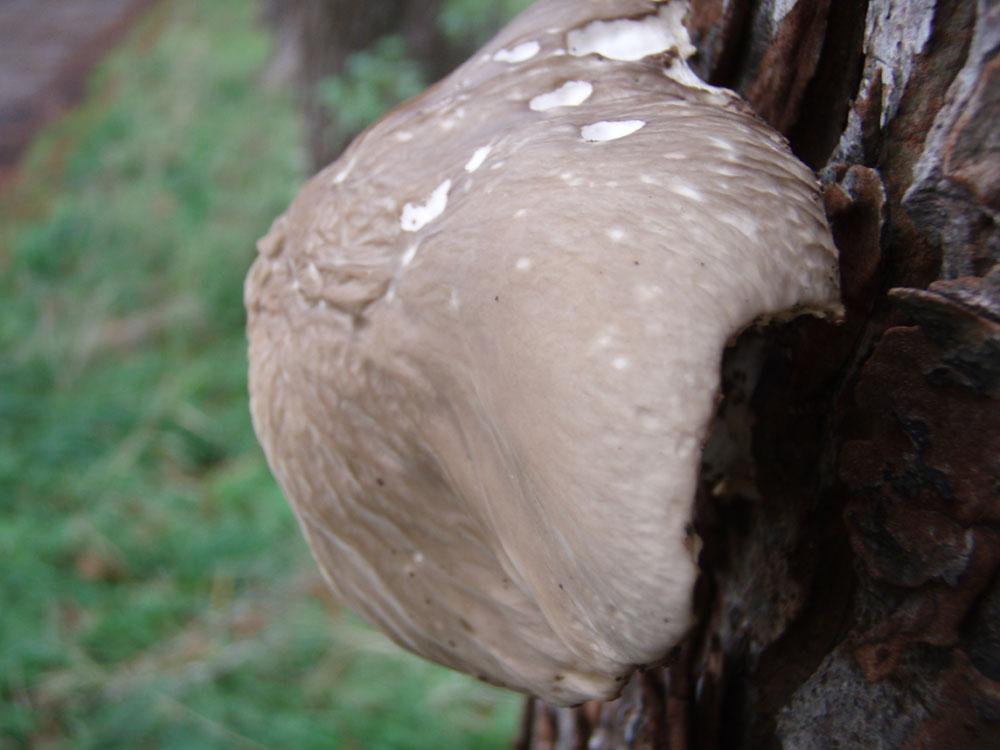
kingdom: Fungi
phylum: Basidiomycota
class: Agaricomycetes
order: Agaricales
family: Physalacriaceae
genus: Mucidula
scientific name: Mucidula mucida
